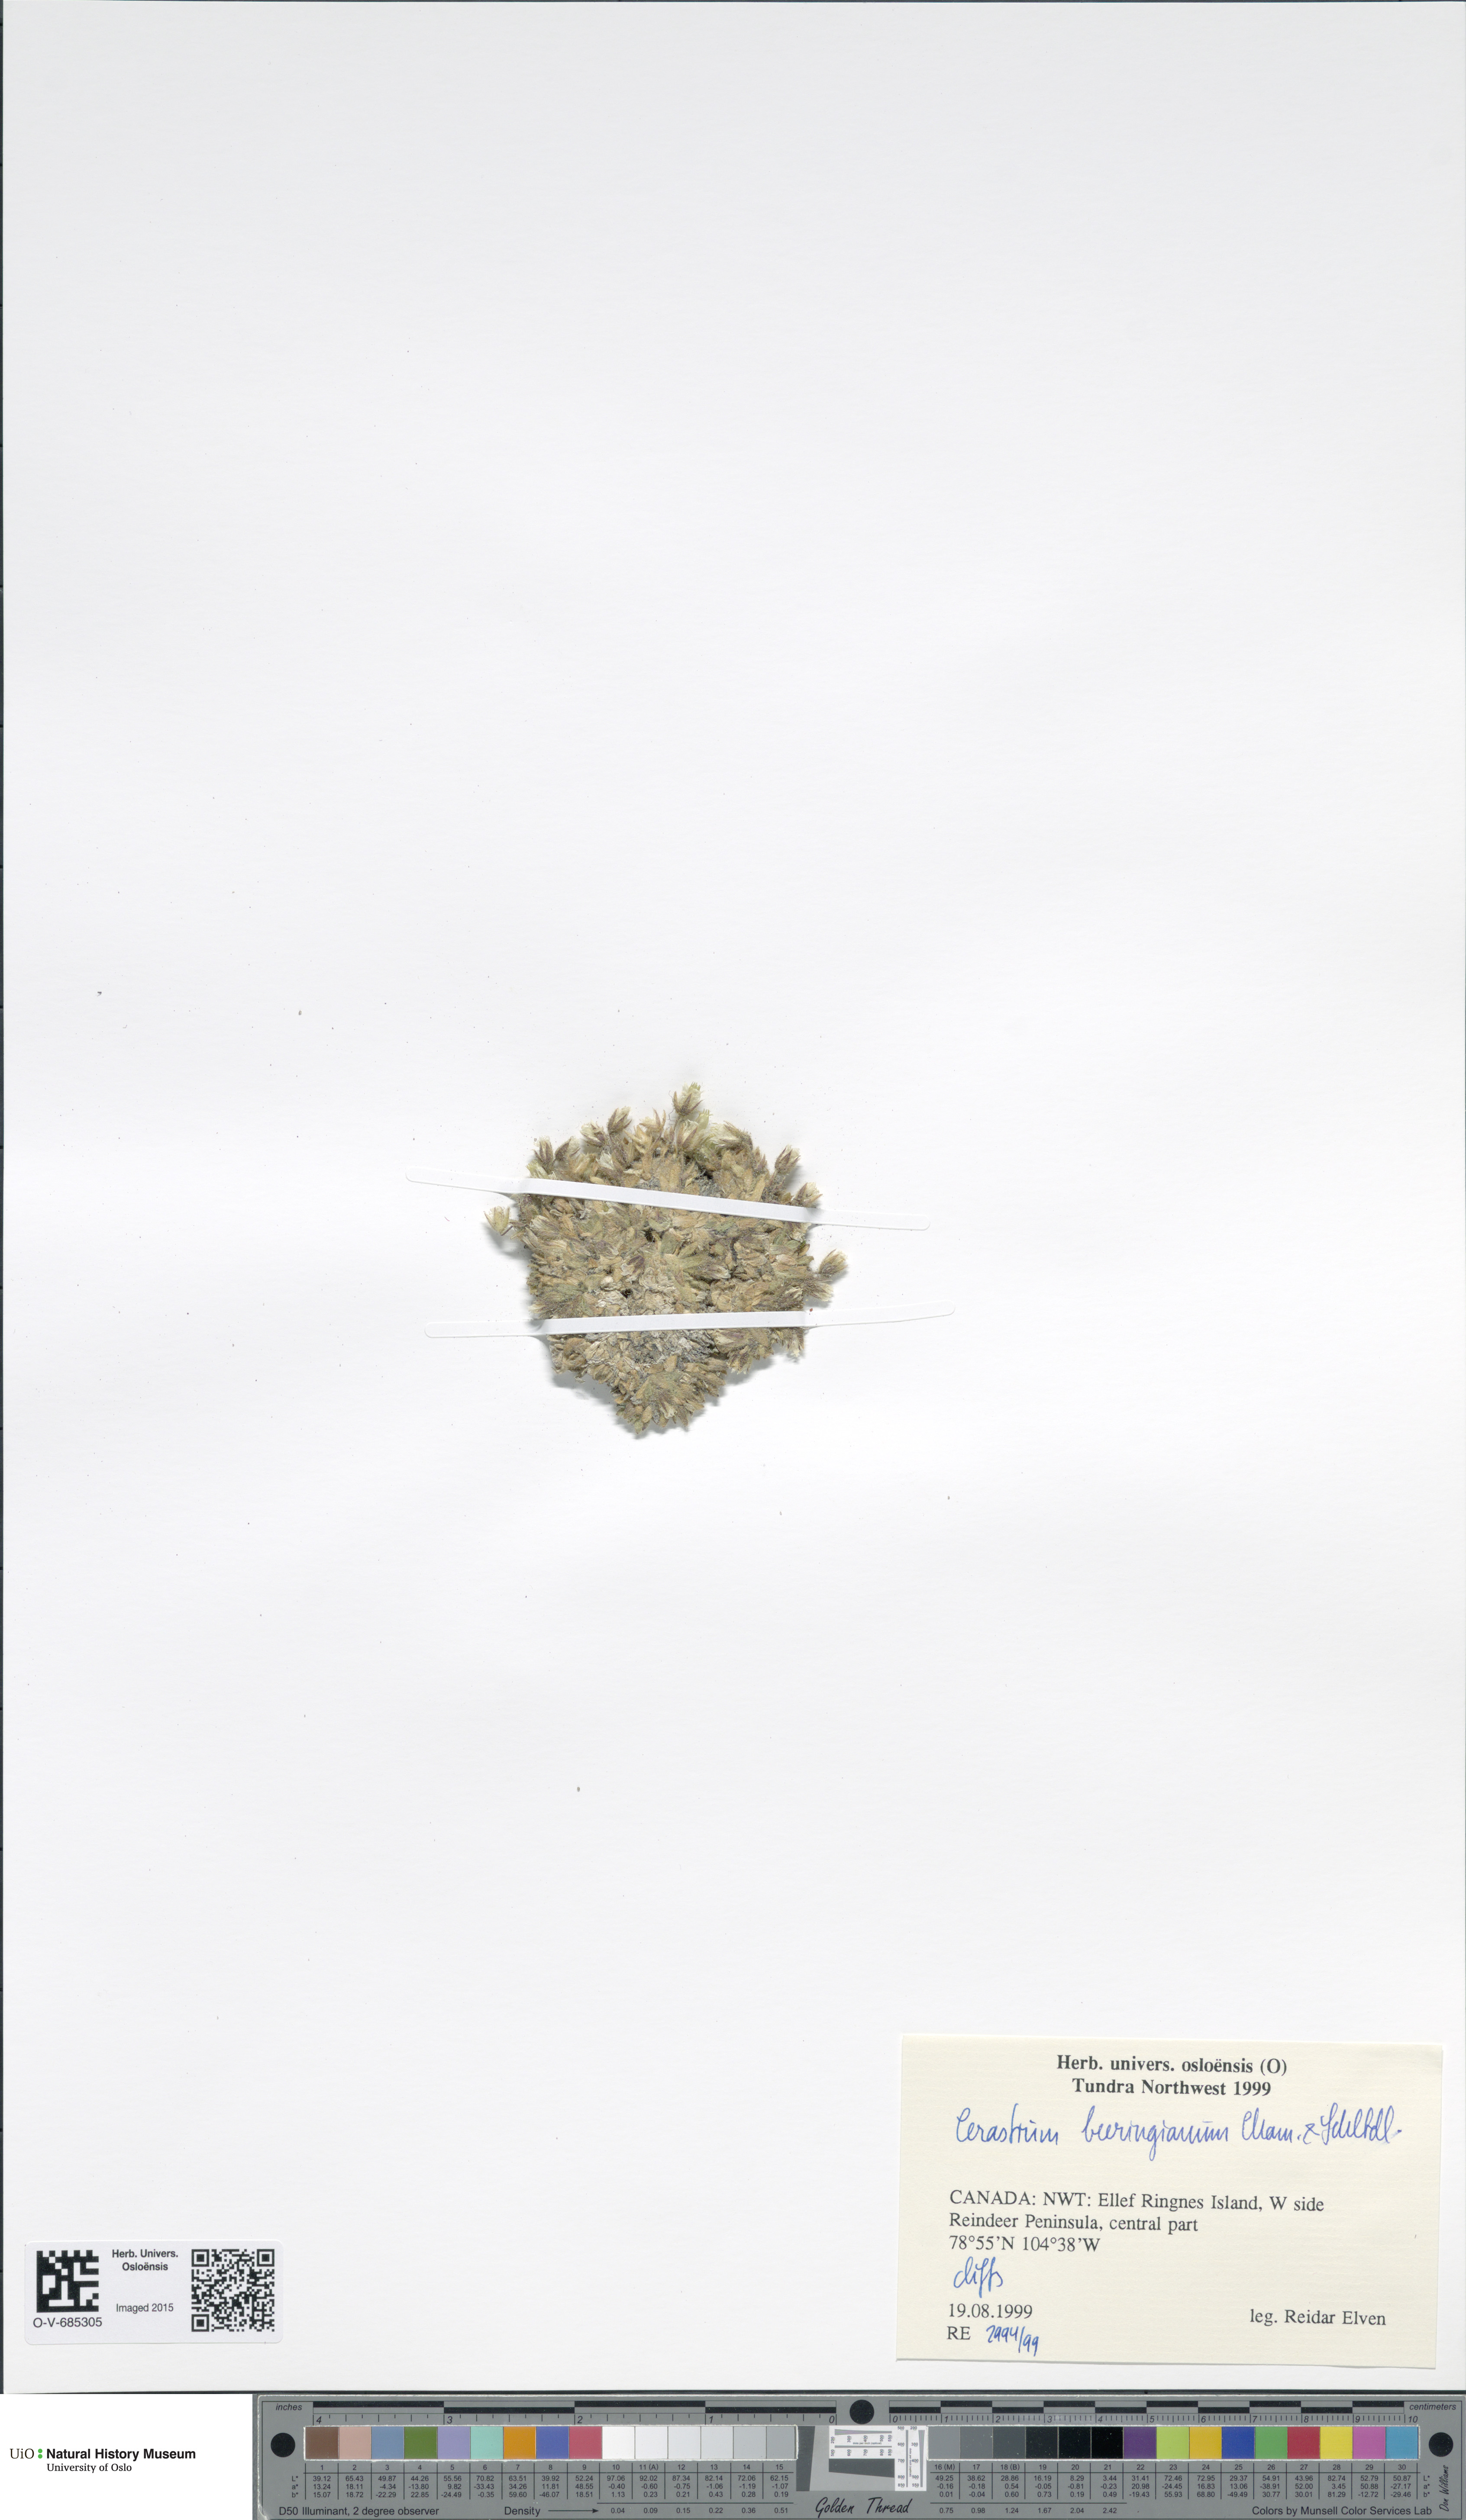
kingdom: Plantae
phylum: Tracheophyta
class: Magnoliopsida
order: Caryophyllales
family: Caryophyllaceae
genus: Cerastium
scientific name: Cerastium beeringianum
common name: Bering mouse-ear chickweed
